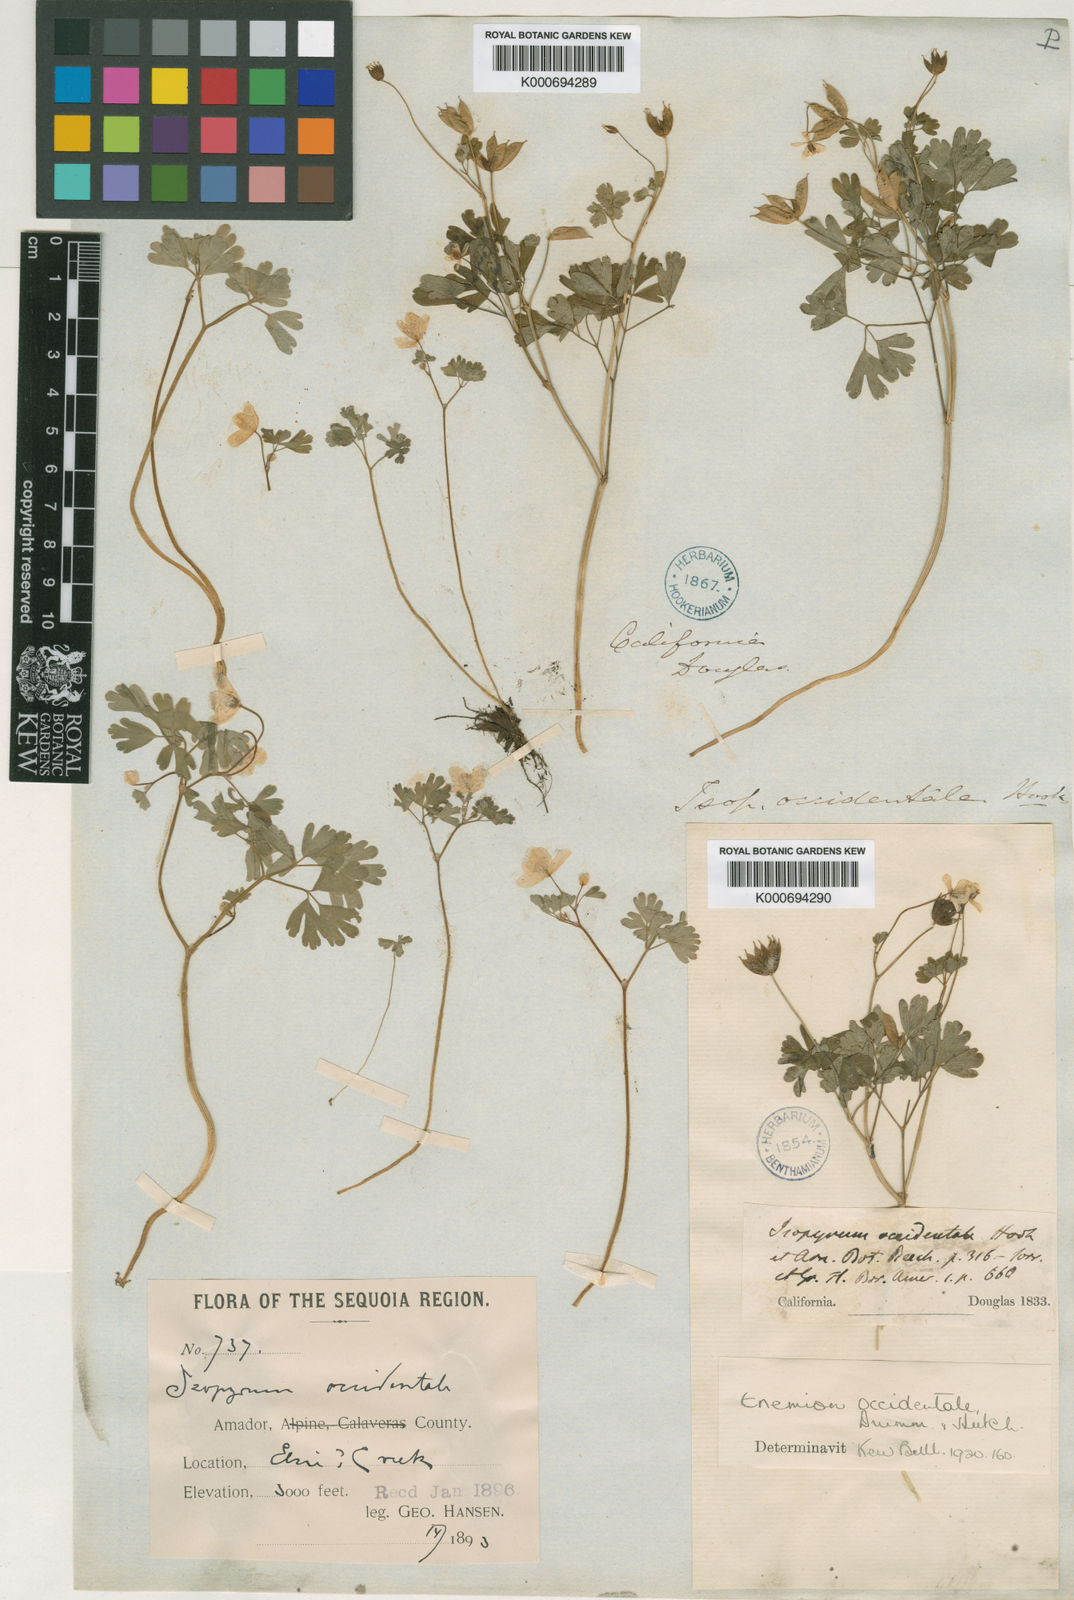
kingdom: Plantae
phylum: Tracheophyta
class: Magnoliopsida
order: Ranunculales
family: Ranunculaceae
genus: Enemion
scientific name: Enemion occidentale
